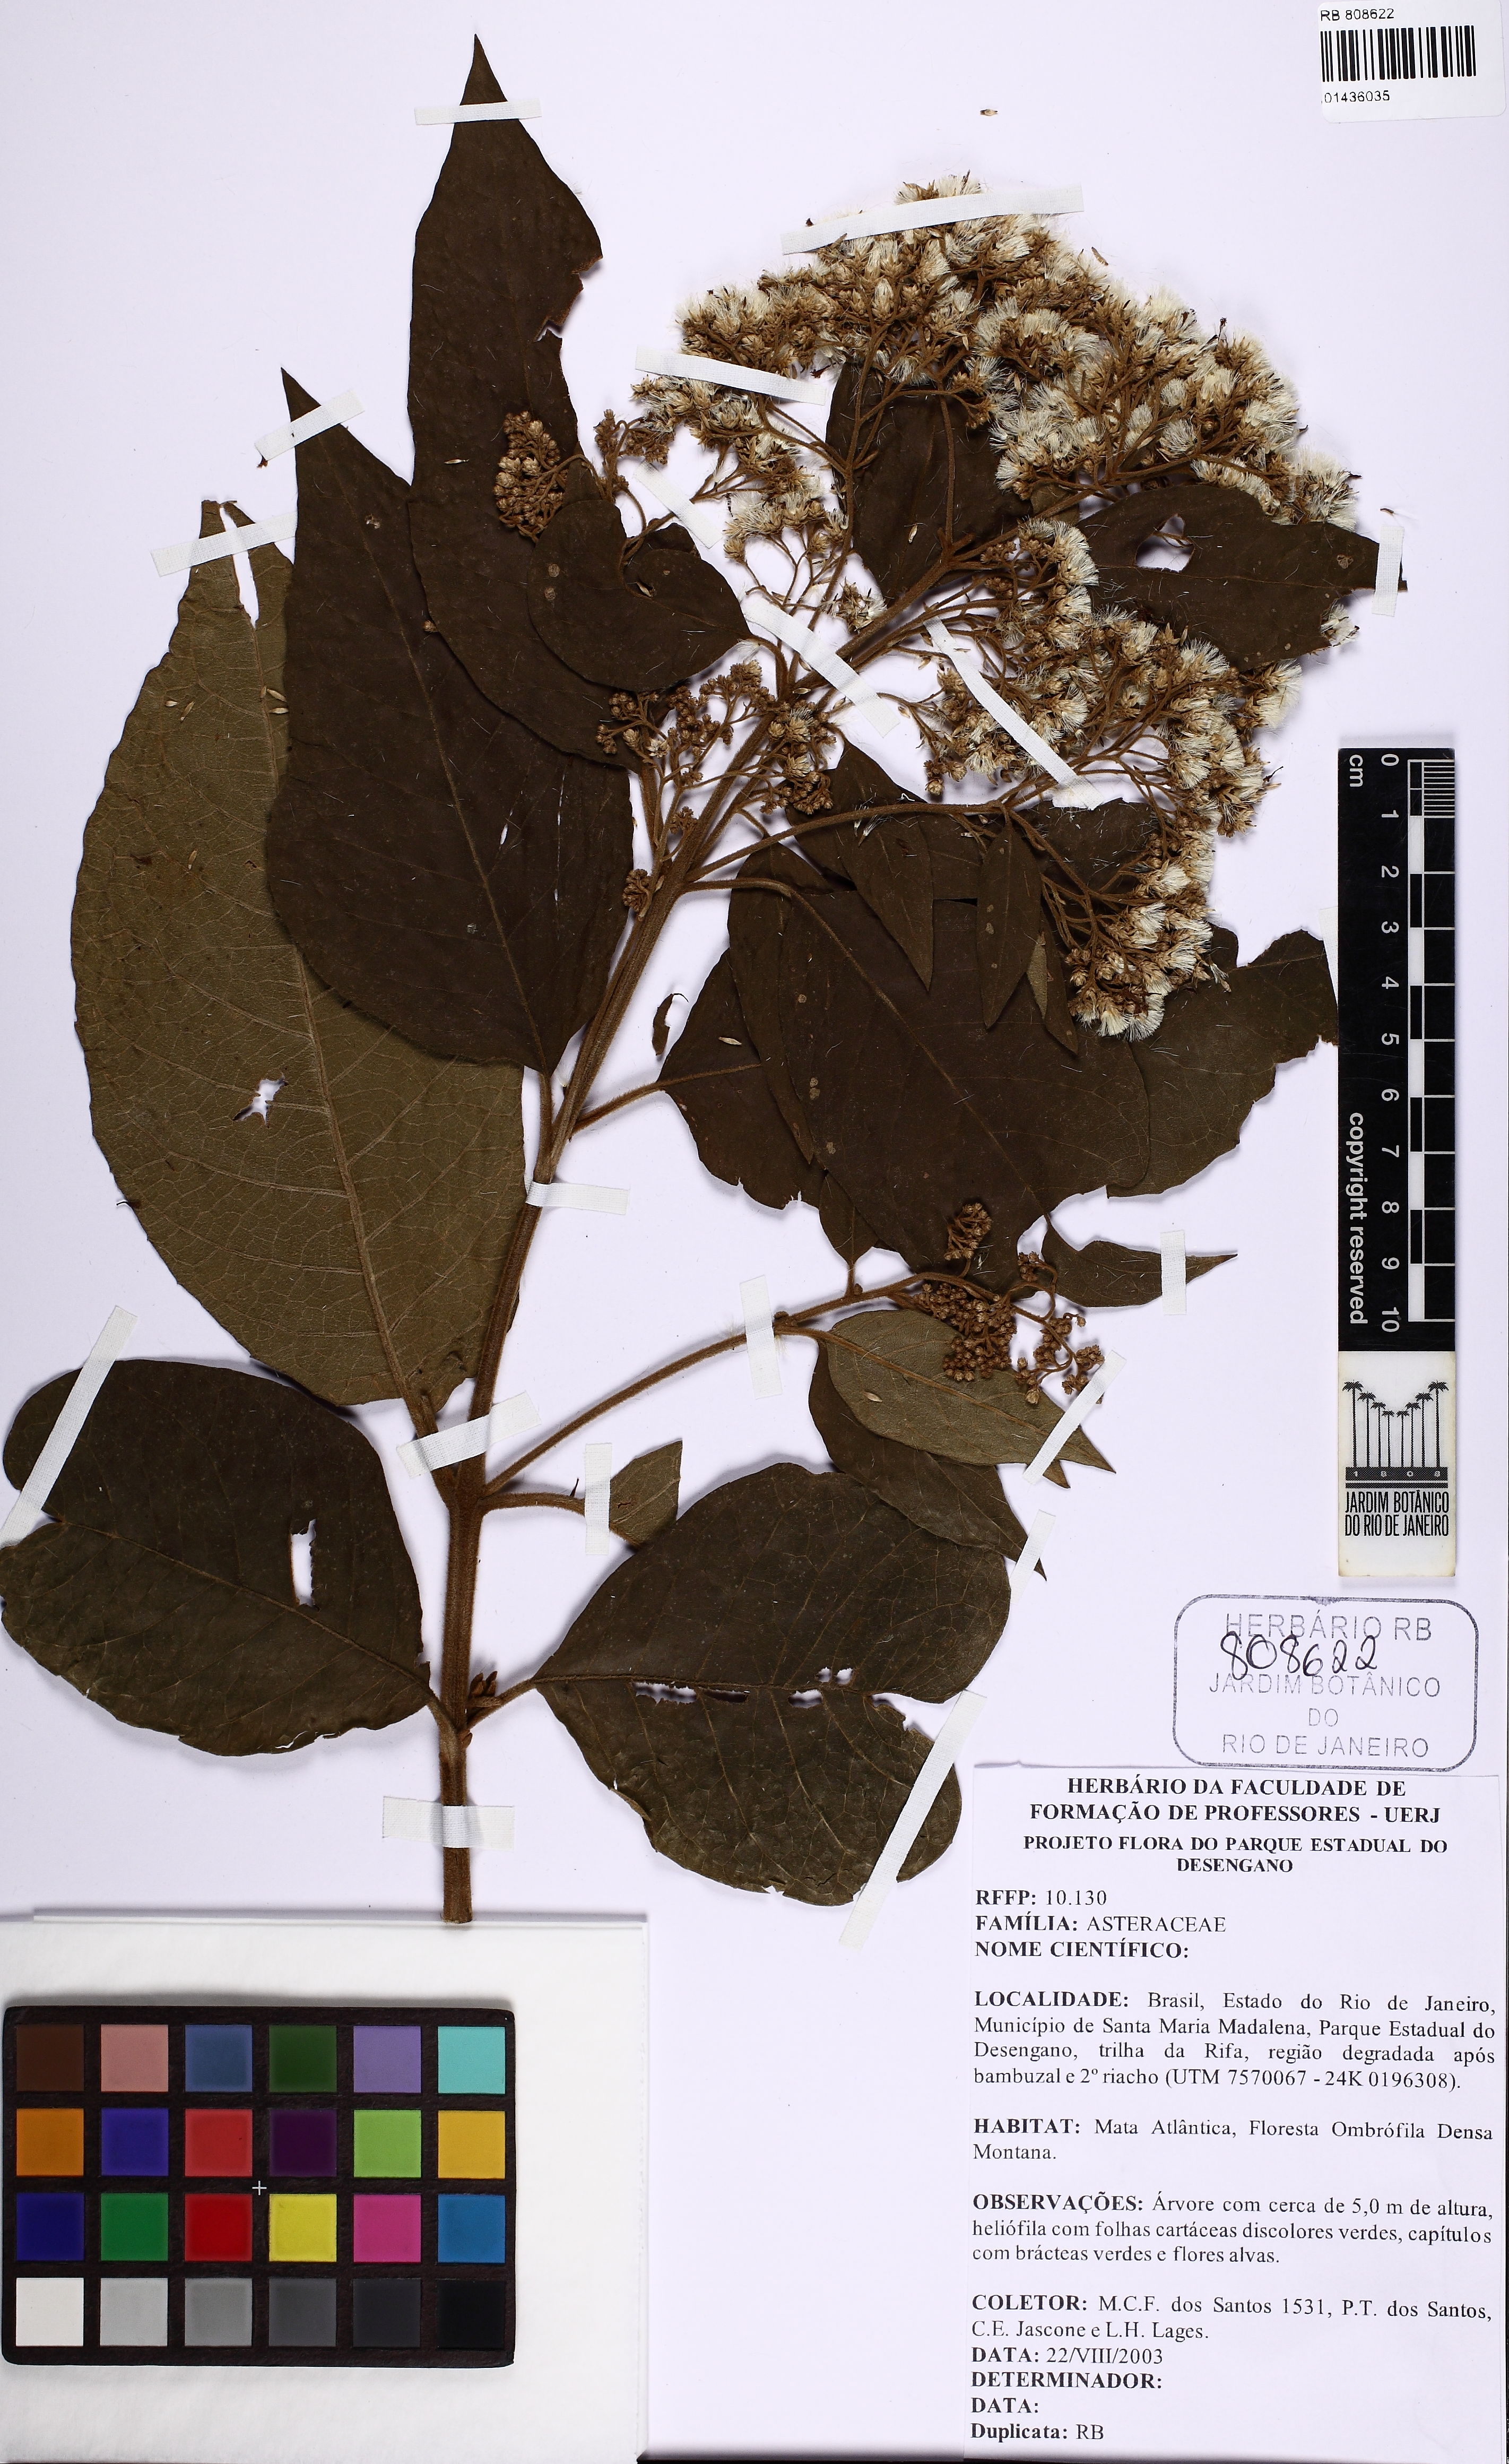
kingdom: Plantae
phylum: Tracheophyta
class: Magnoliopsida
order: Asterales
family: Asteraceae
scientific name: Asteraceae
